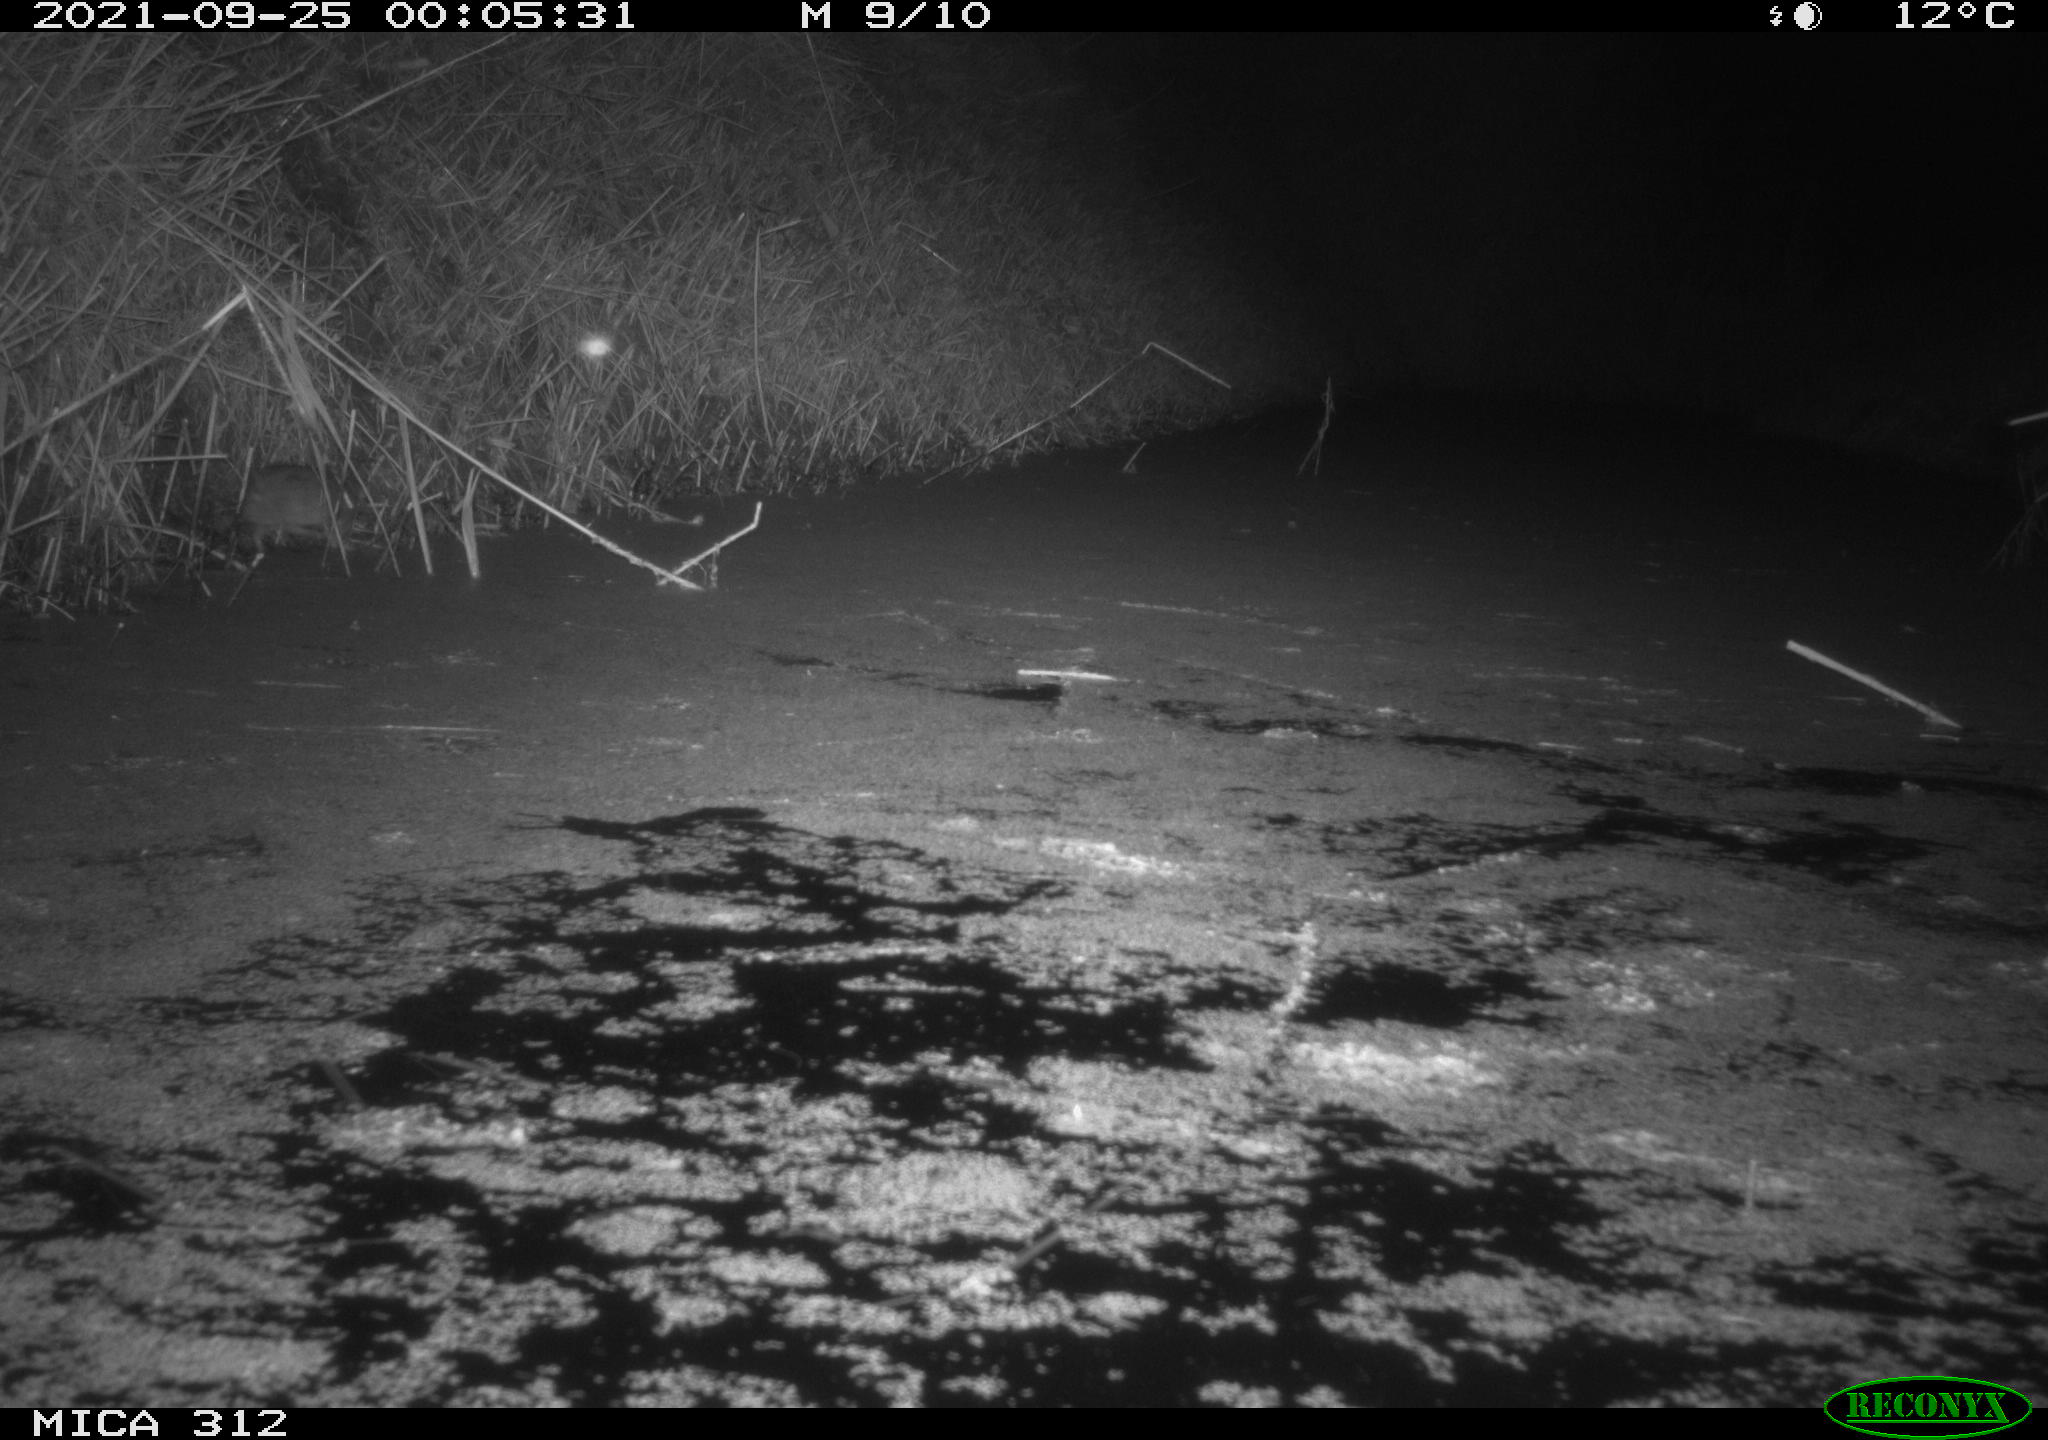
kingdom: Animalia
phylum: Chordata
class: Mammalia
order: Rodentia
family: Muridae
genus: Rattus
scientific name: Rattus norvegicus
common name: Brown rat
